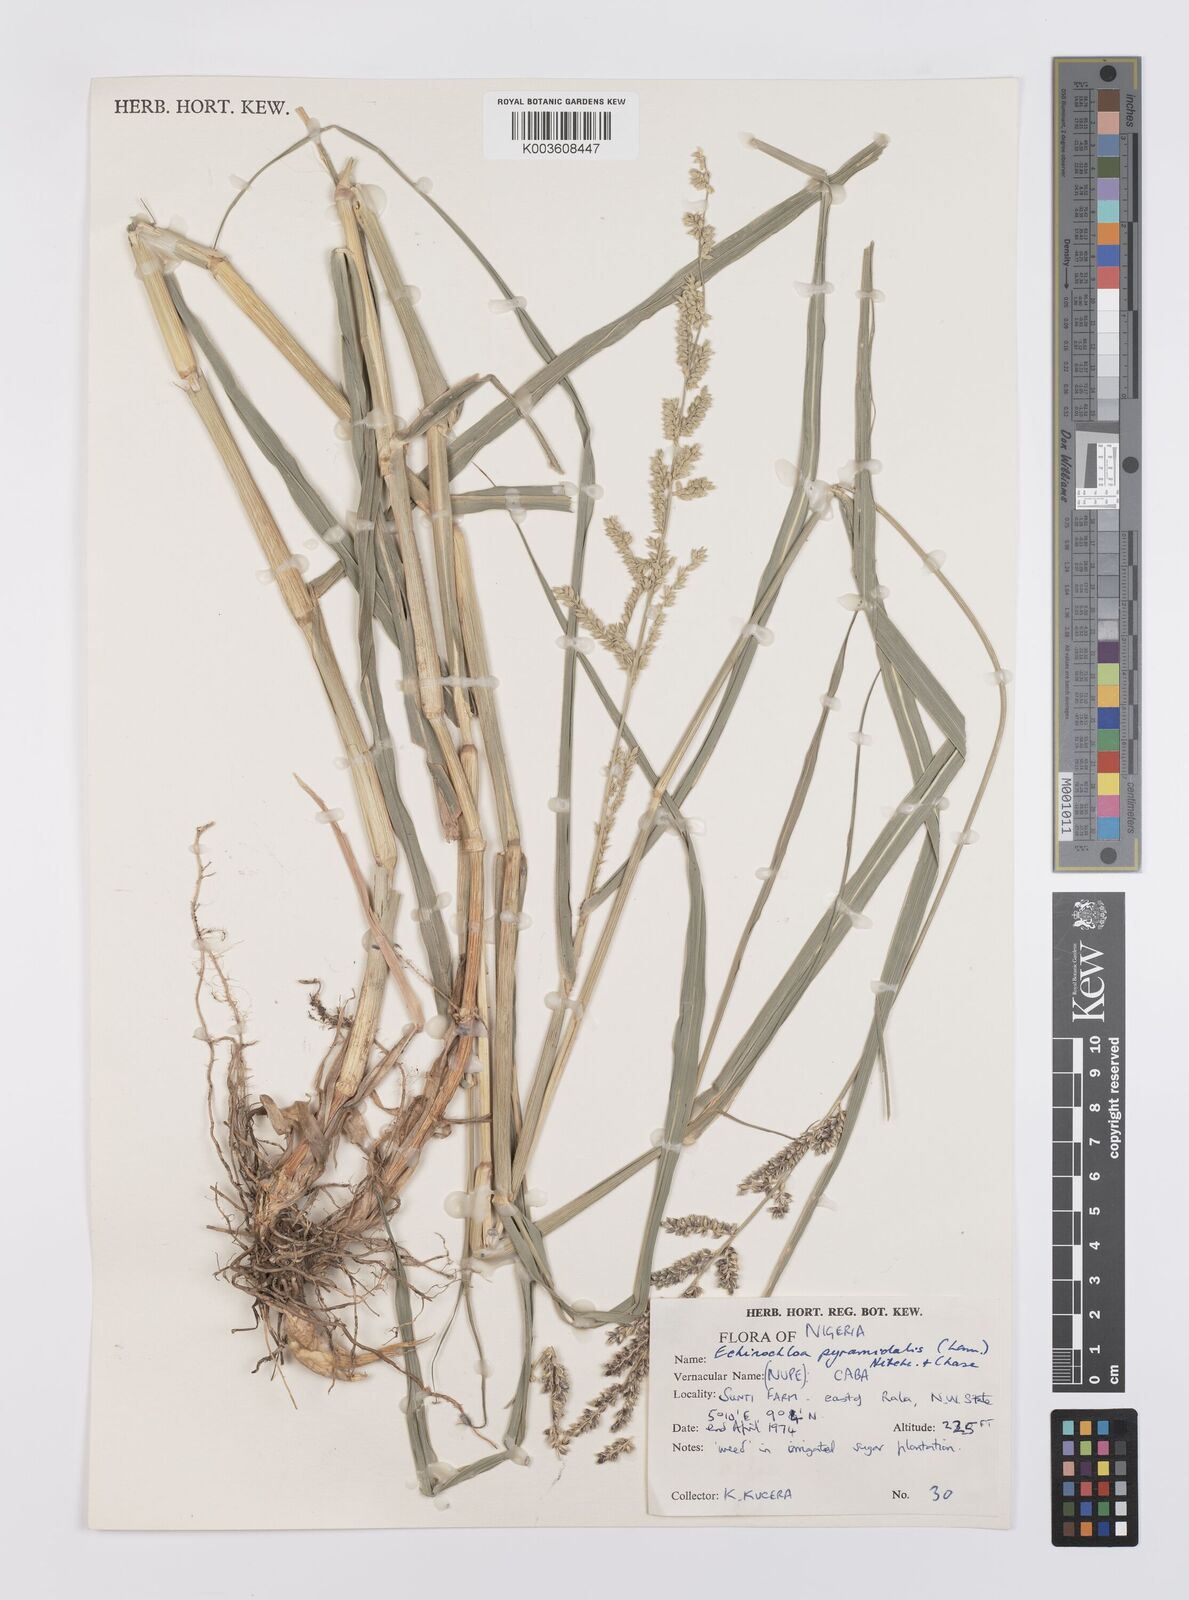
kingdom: Plantae
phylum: Tracheophyta
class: Liliopsida
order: Poales
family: Poaceae
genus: Echinochloa
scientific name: Echinochloa pyramidalis
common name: Antelope grass
